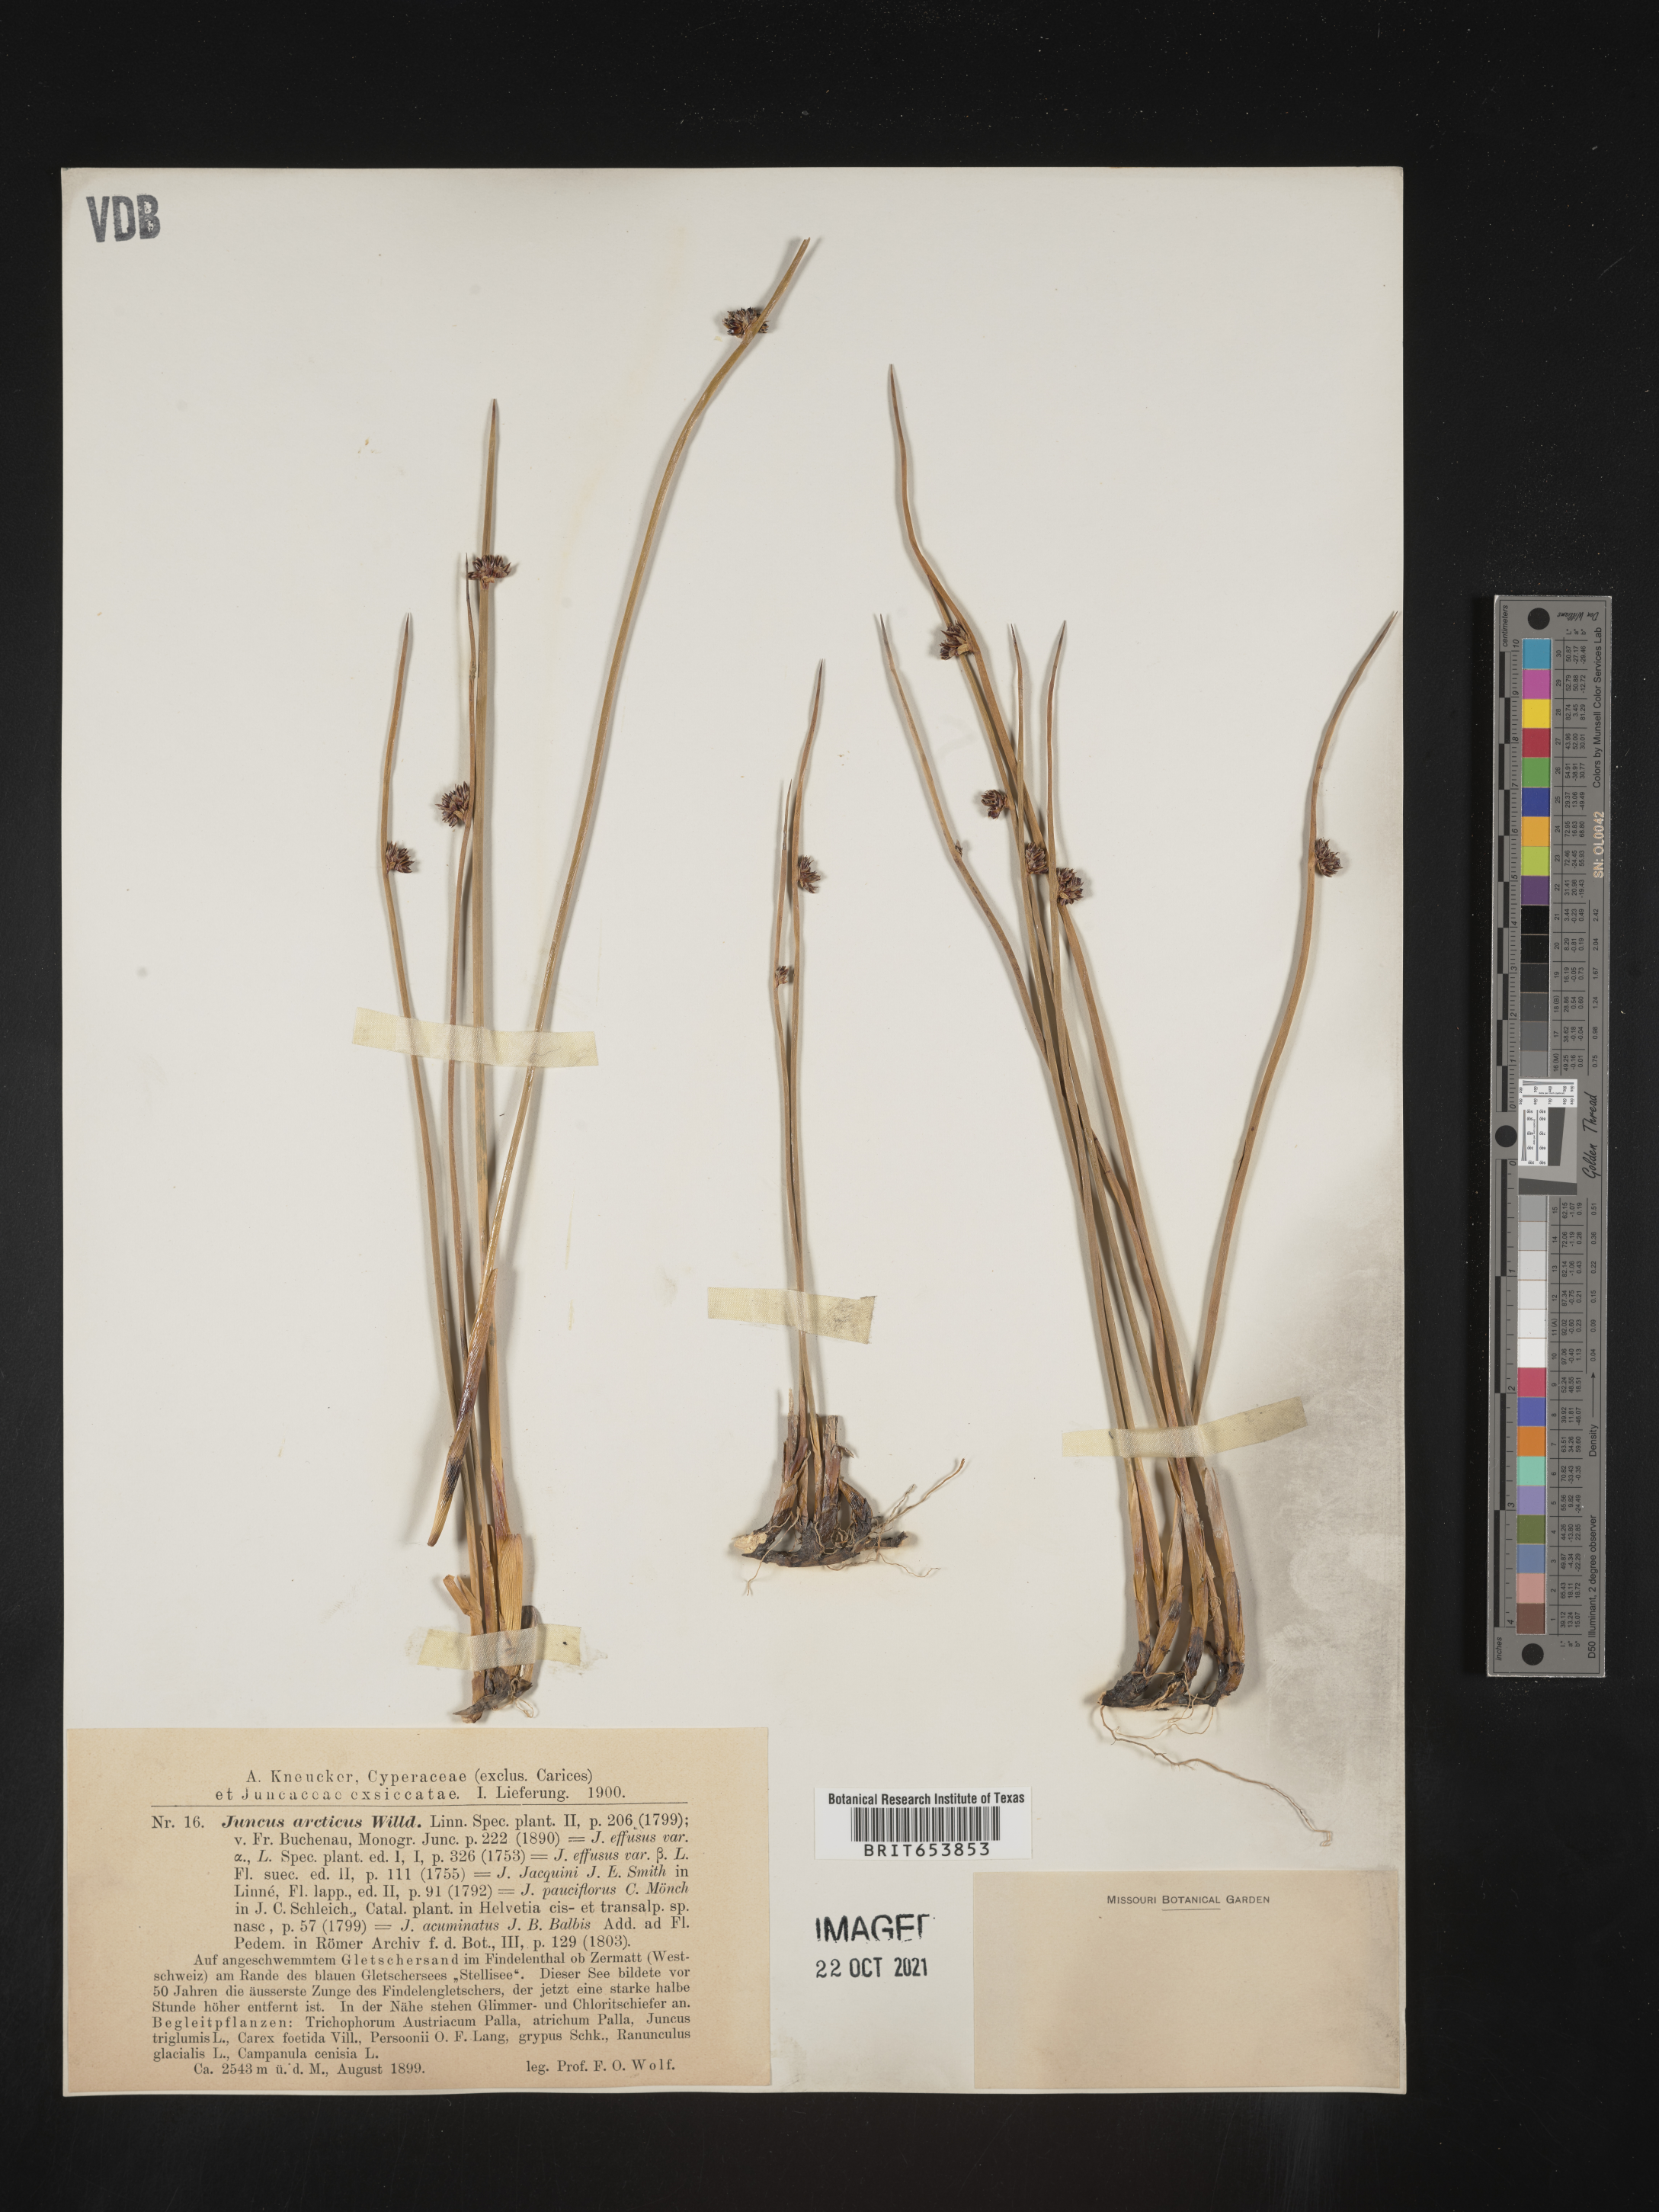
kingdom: Plantae
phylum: Tracheophyta
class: Liliopsida
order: Poales
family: Juncaceae
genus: Juncus
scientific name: Juncus arcticus
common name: Arctic rush
